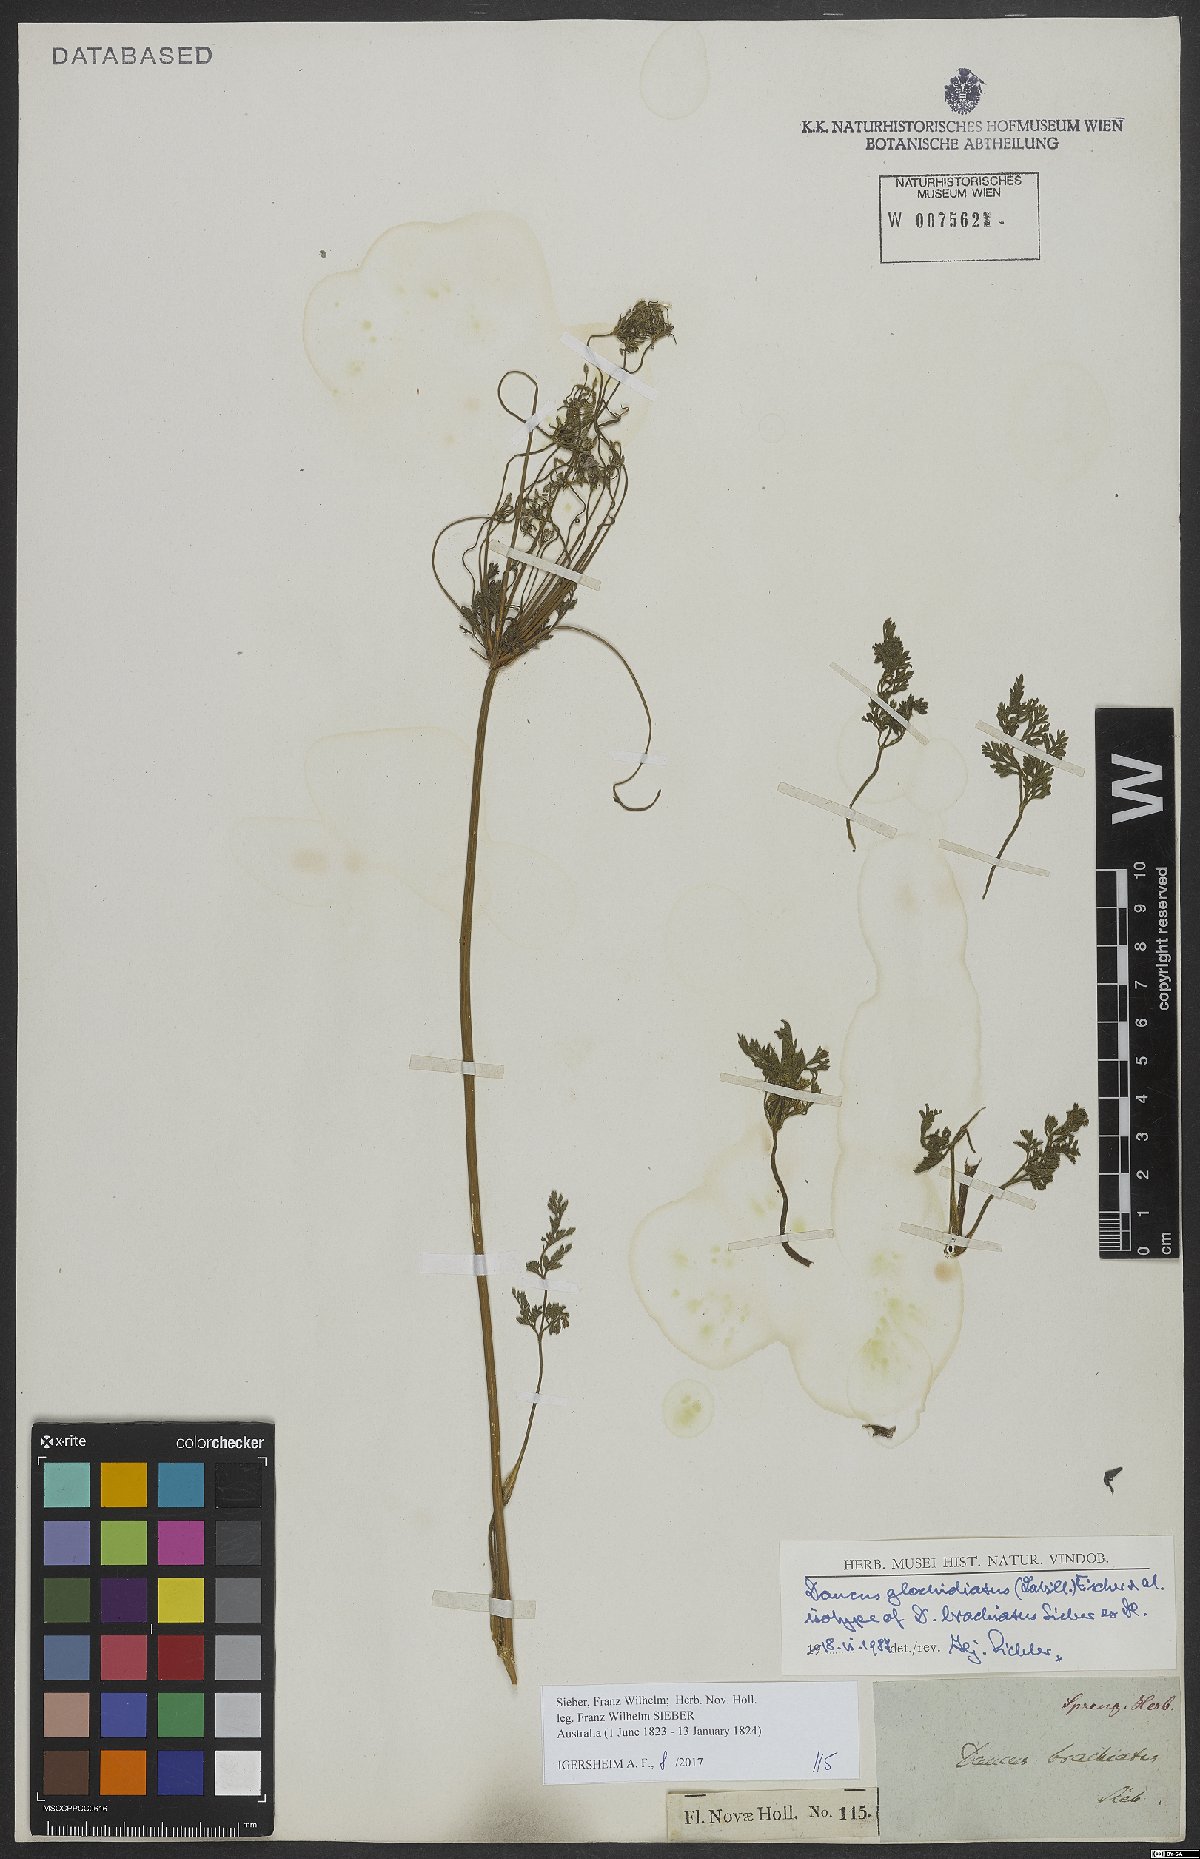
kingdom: Plantae
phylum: Tracheophyta
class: Magnoliopsida
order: Apiales
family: Apiaceae
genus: Daucus
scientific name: Daucus glochidiatus
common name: Australian carrot
